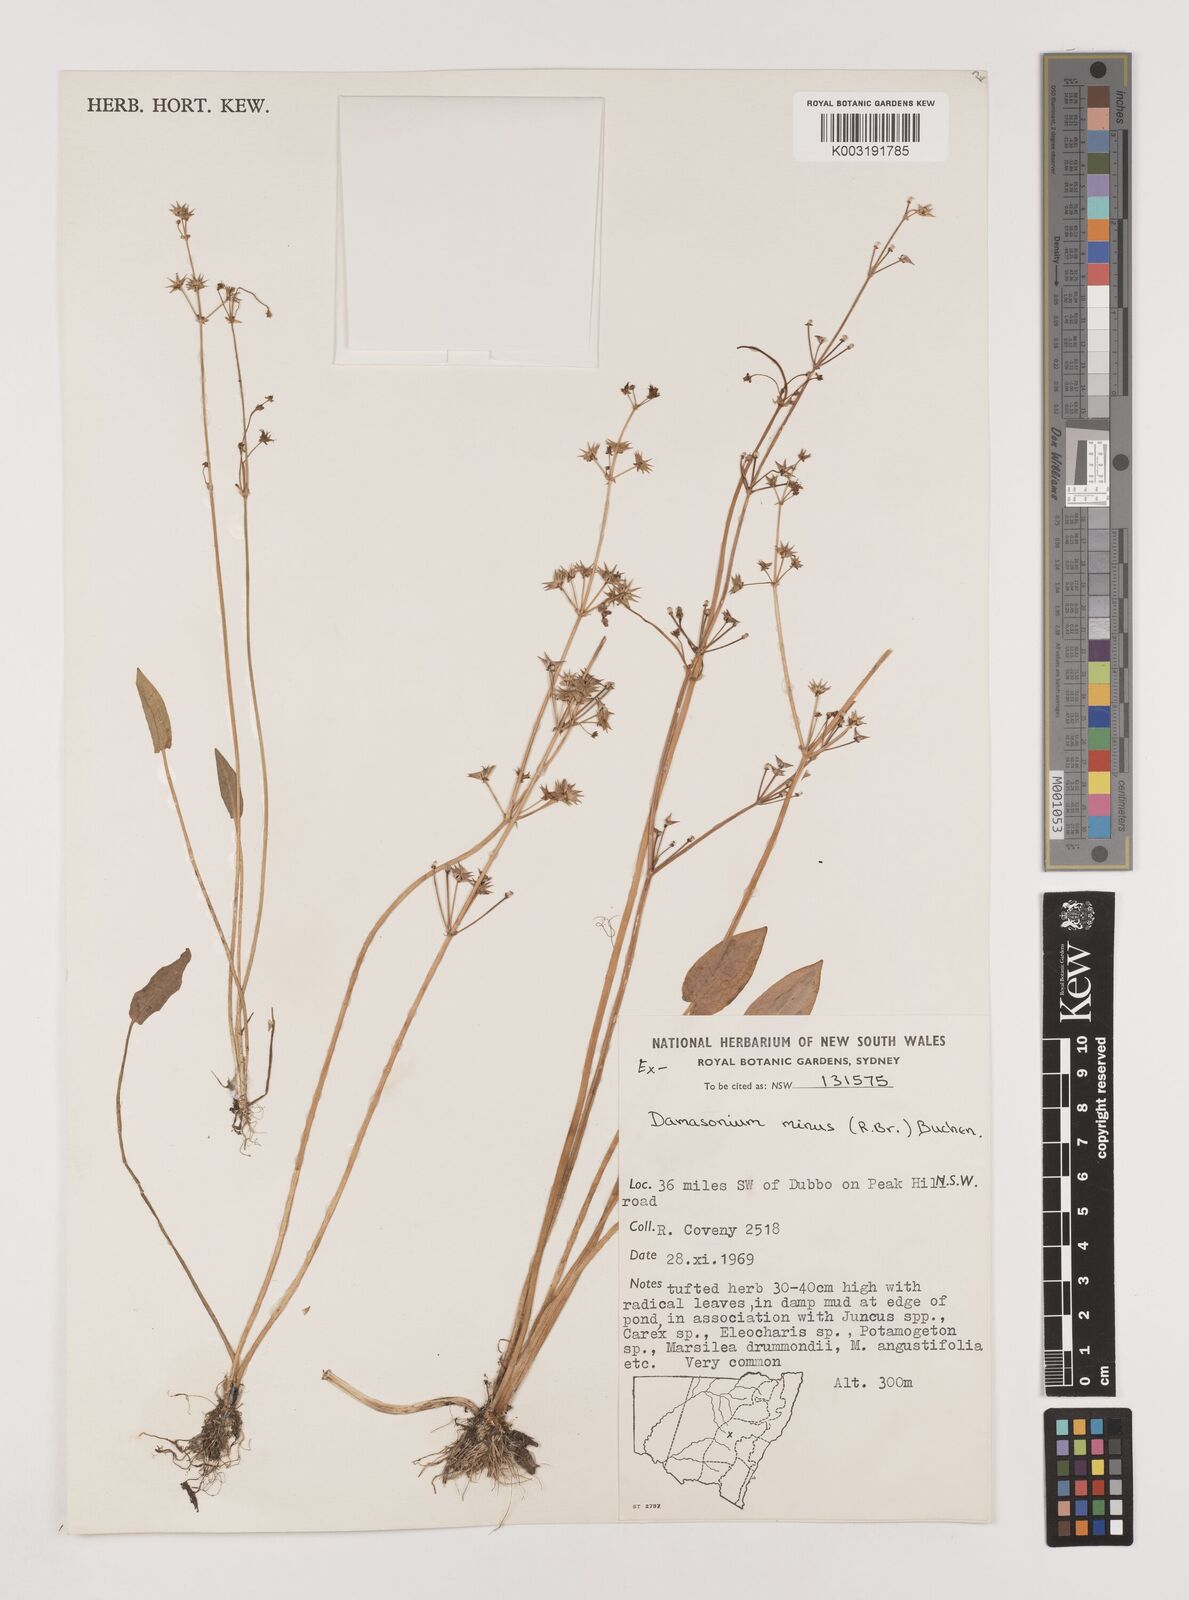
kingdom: Plantae
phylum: Tracheophyta
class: Liliopsida
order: Alismatales
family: Alismataceae
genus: Damasonium
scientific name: Damasonium minus
